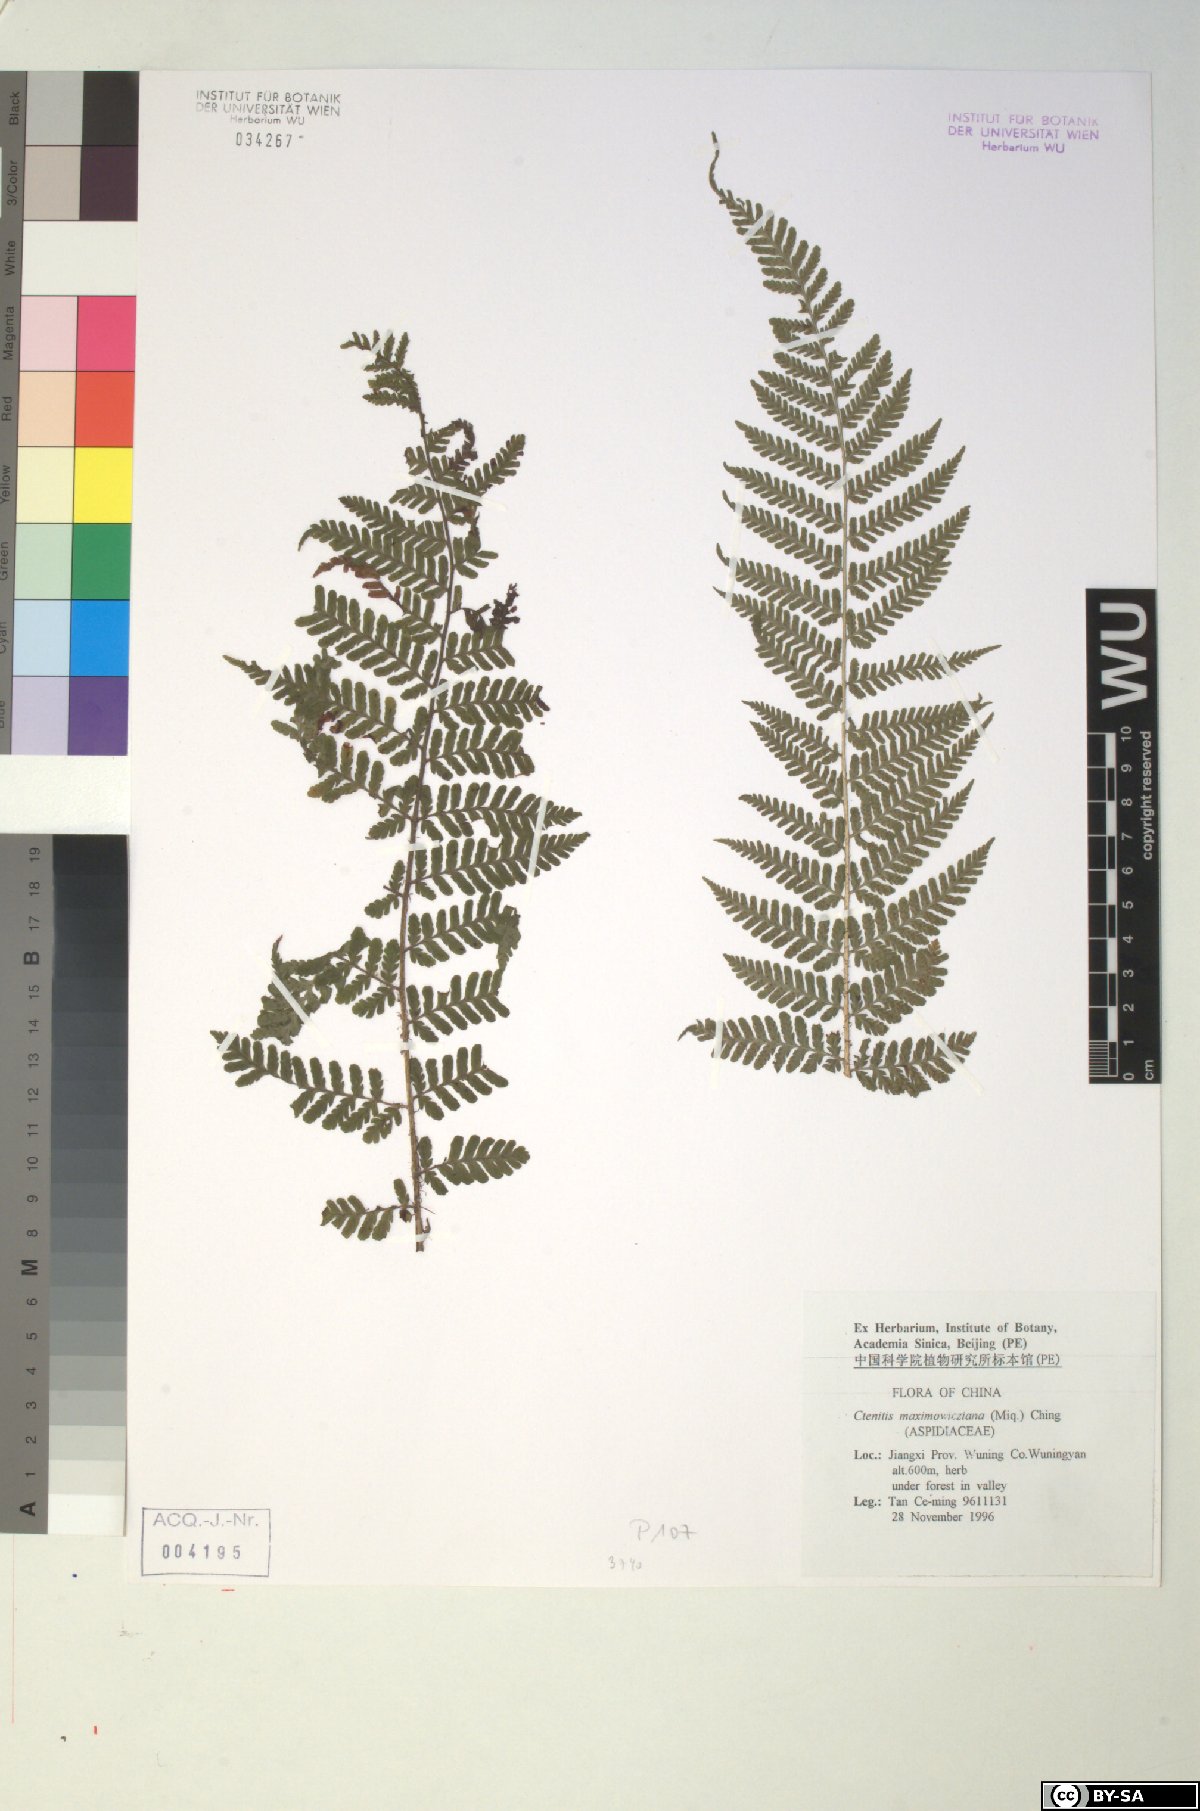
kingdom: Plantae
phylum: Tracheophyta
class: Polypodiopsida
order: Polypodiales
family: Dryopteridaceae
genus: Dryopteris
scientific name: Dryopteris maximowicziana
